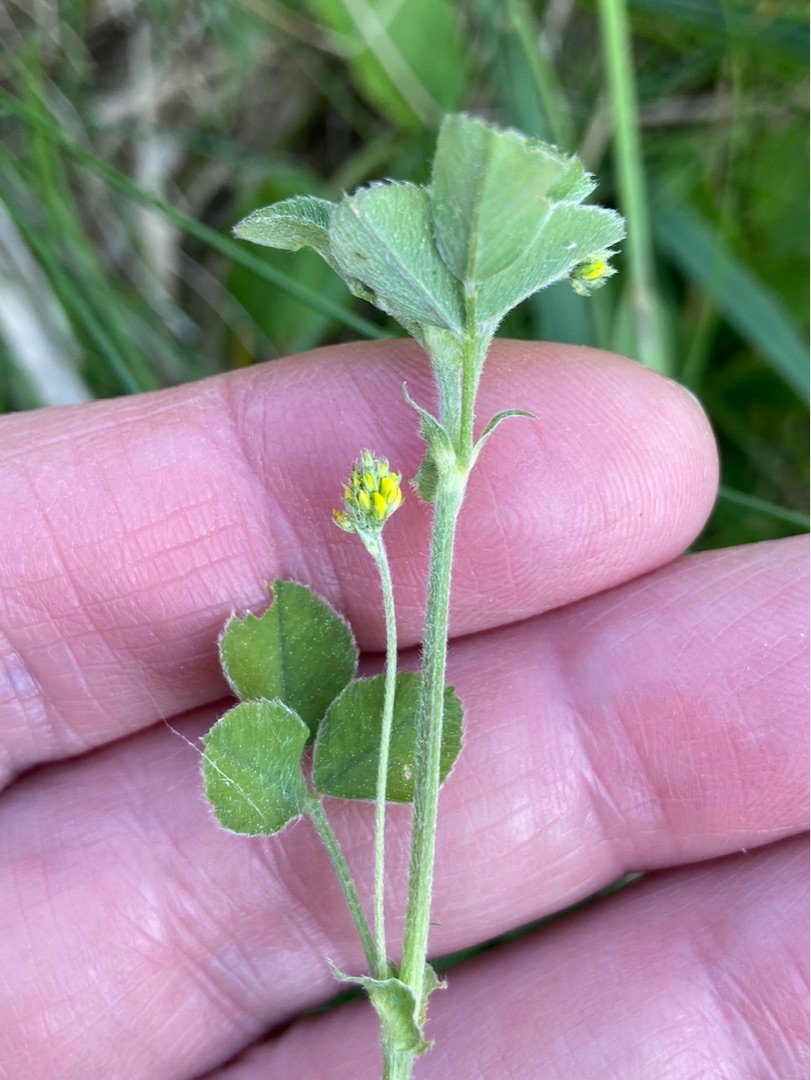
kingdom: Plantae
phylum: Tracheophyta
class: Magnoliopsida
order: Fabales
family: Fabaceae
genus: Medicago
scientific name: Medicago lupulina
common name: Humle-sneglebælg
